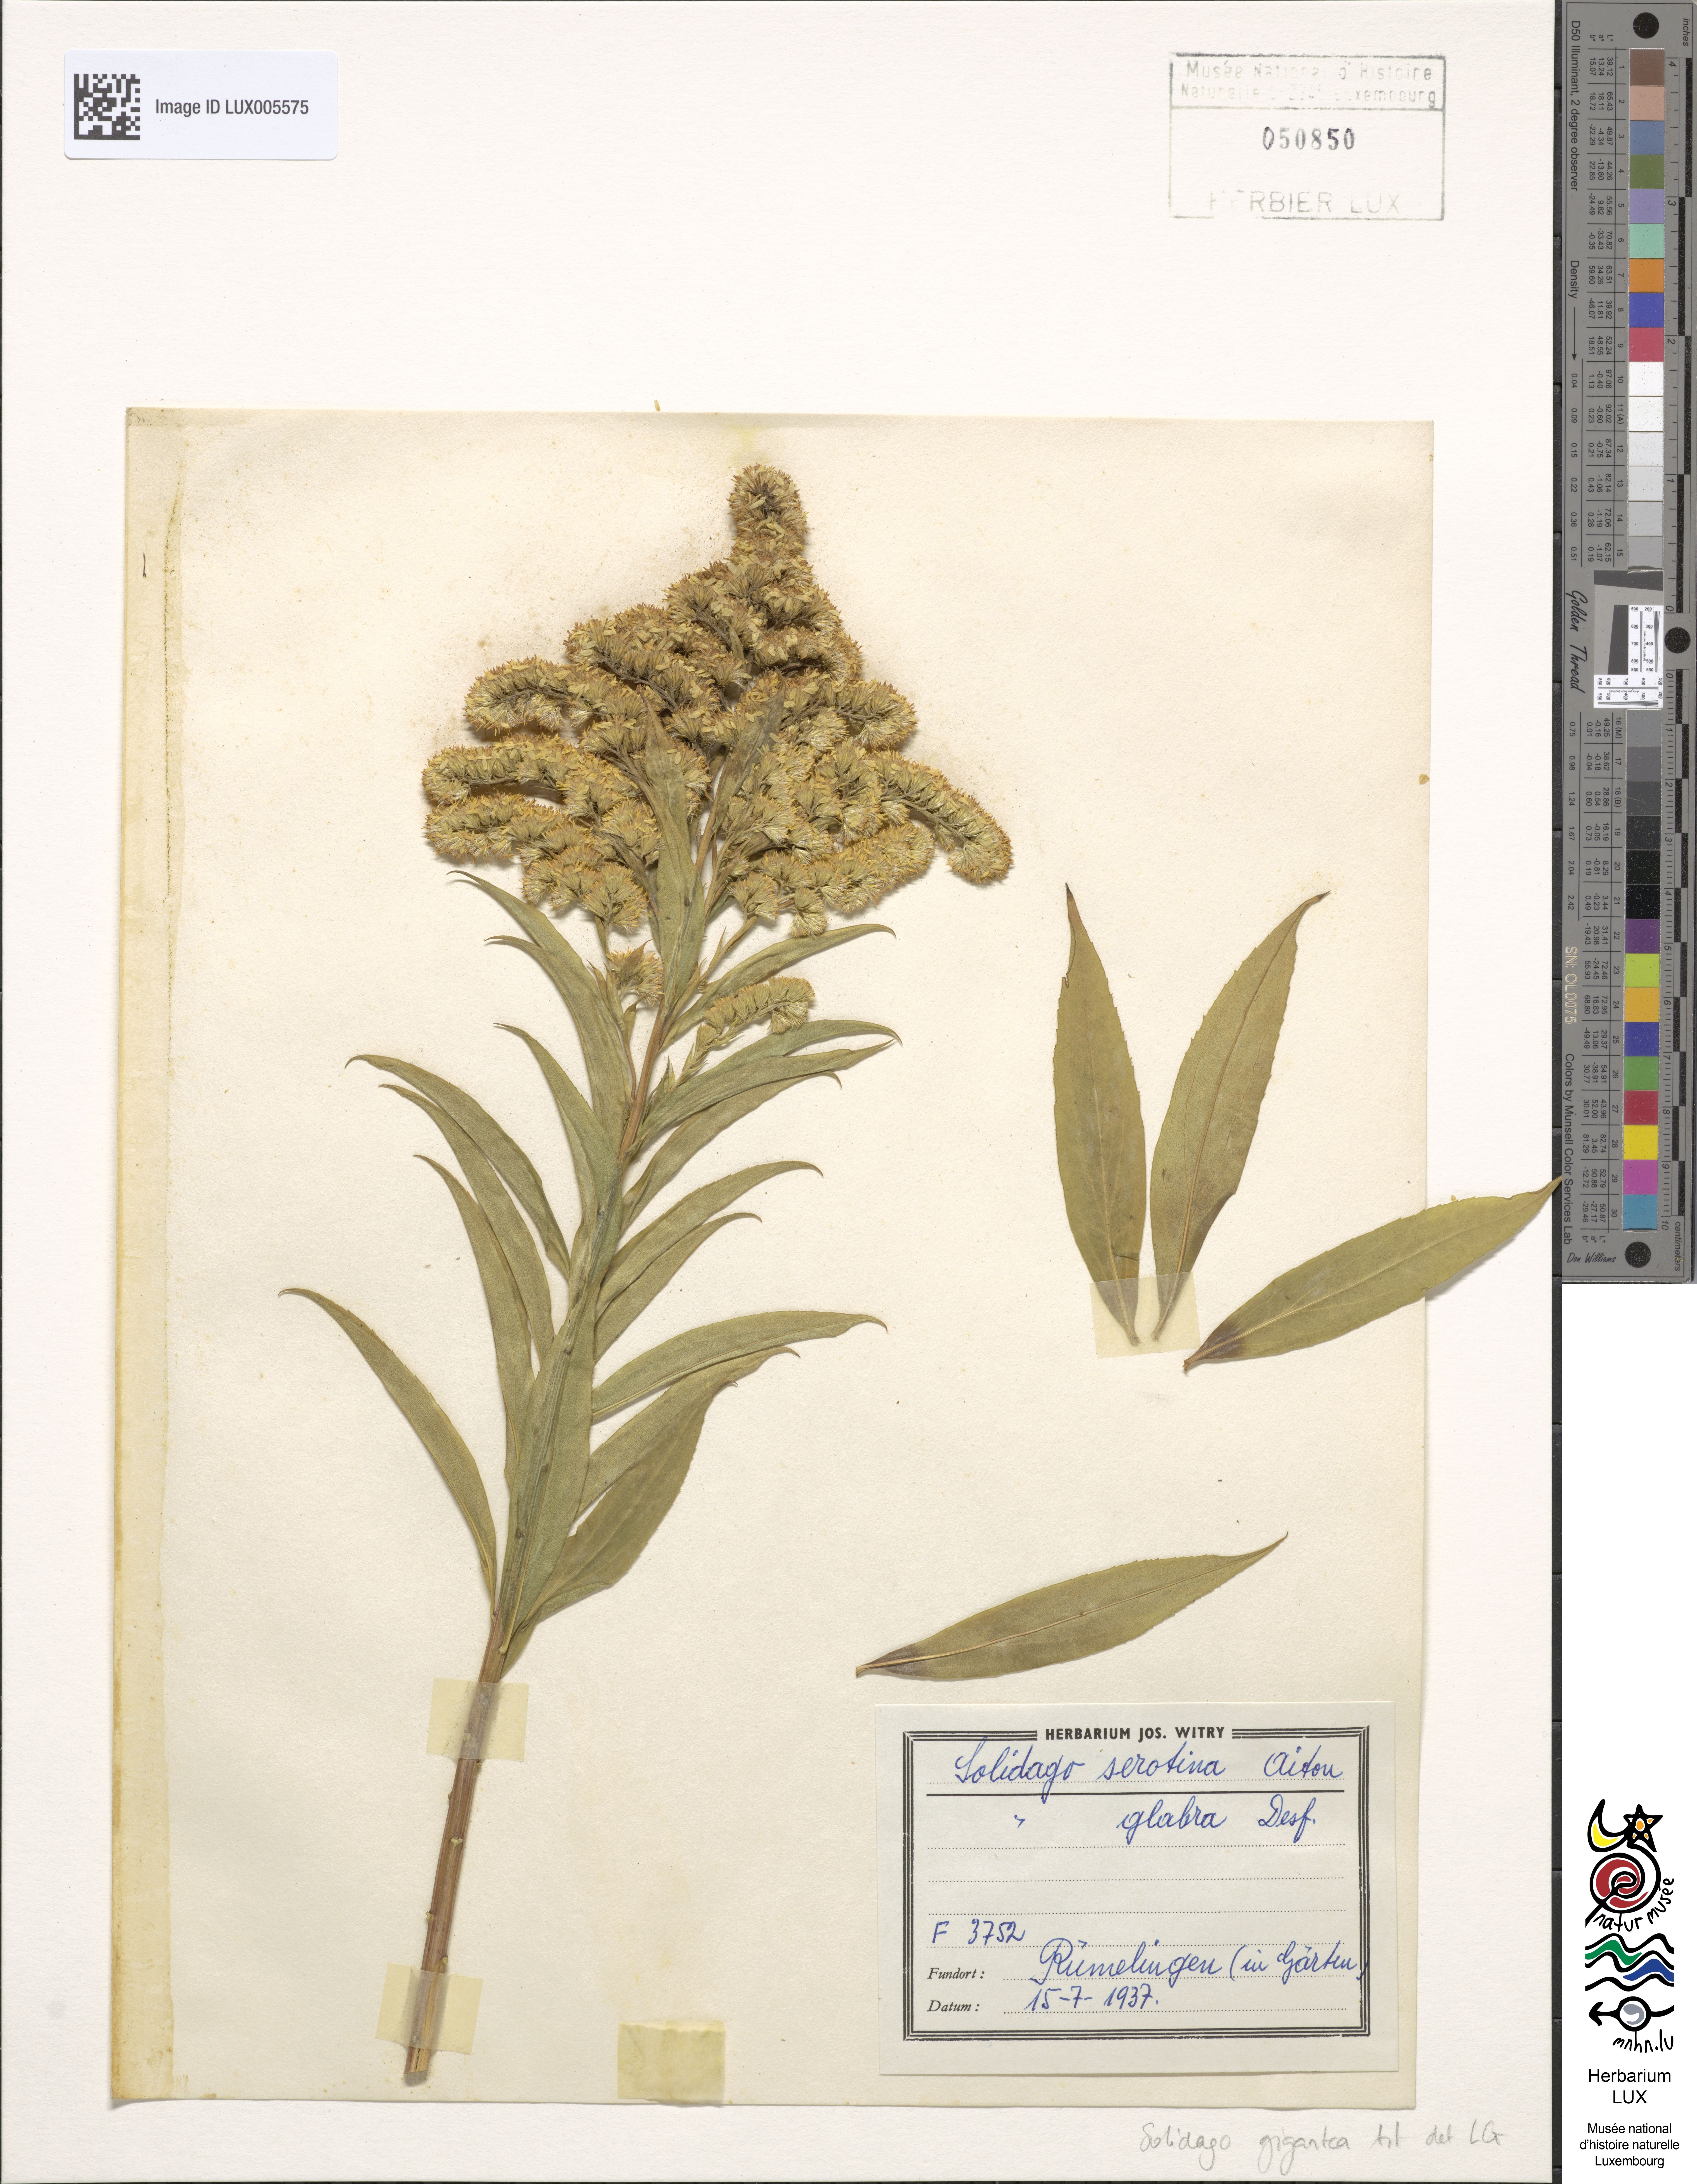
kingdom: Plantae
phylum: Tracheophyta
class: Magnoliopsida
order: Asterales
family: Asteraceae
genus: Solidago
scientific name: Solidago gigantea
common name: Giant goldenrod
